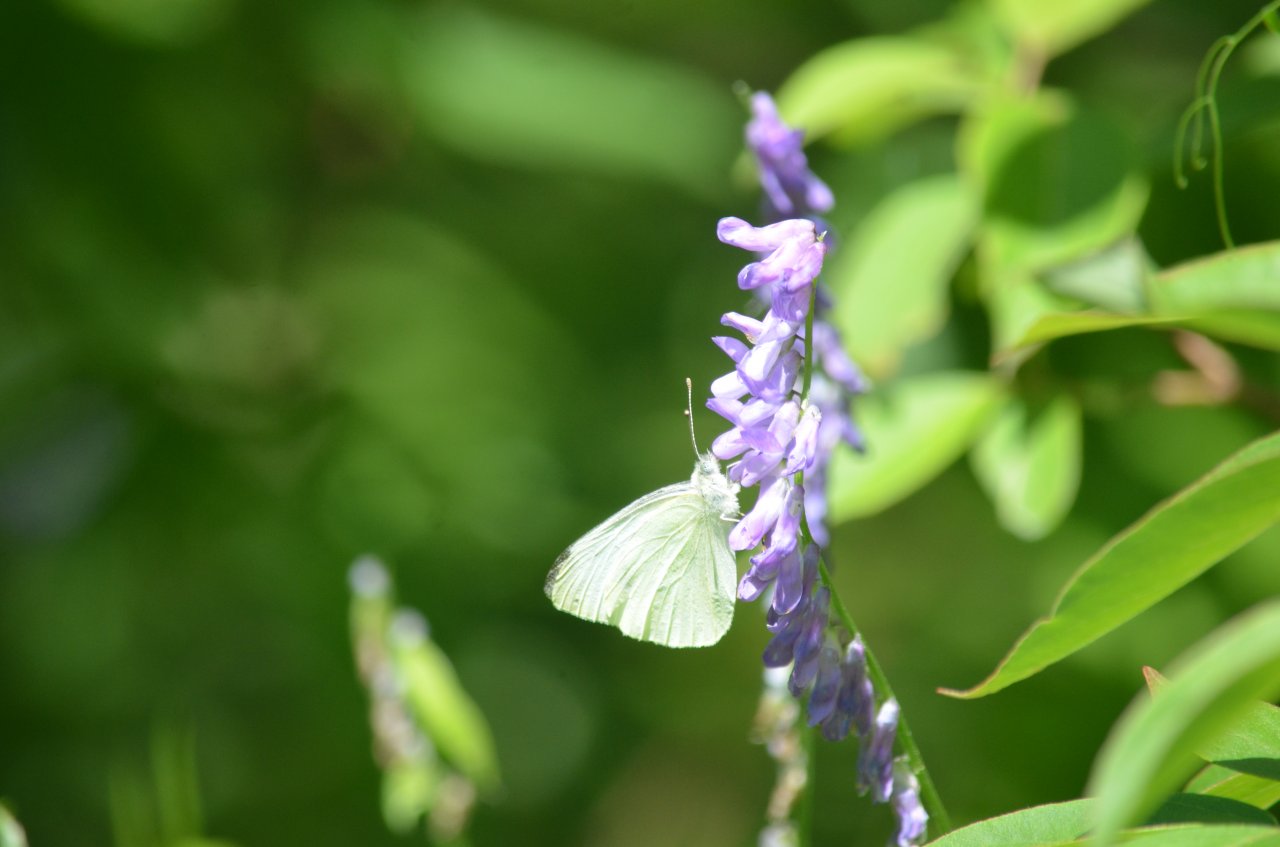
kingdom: Animalia
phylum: Arthropoda
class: Insecta
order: Lepidoptera
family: Pieridae
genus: Pieris
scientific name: Pieris rapae
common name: Cabbage White
